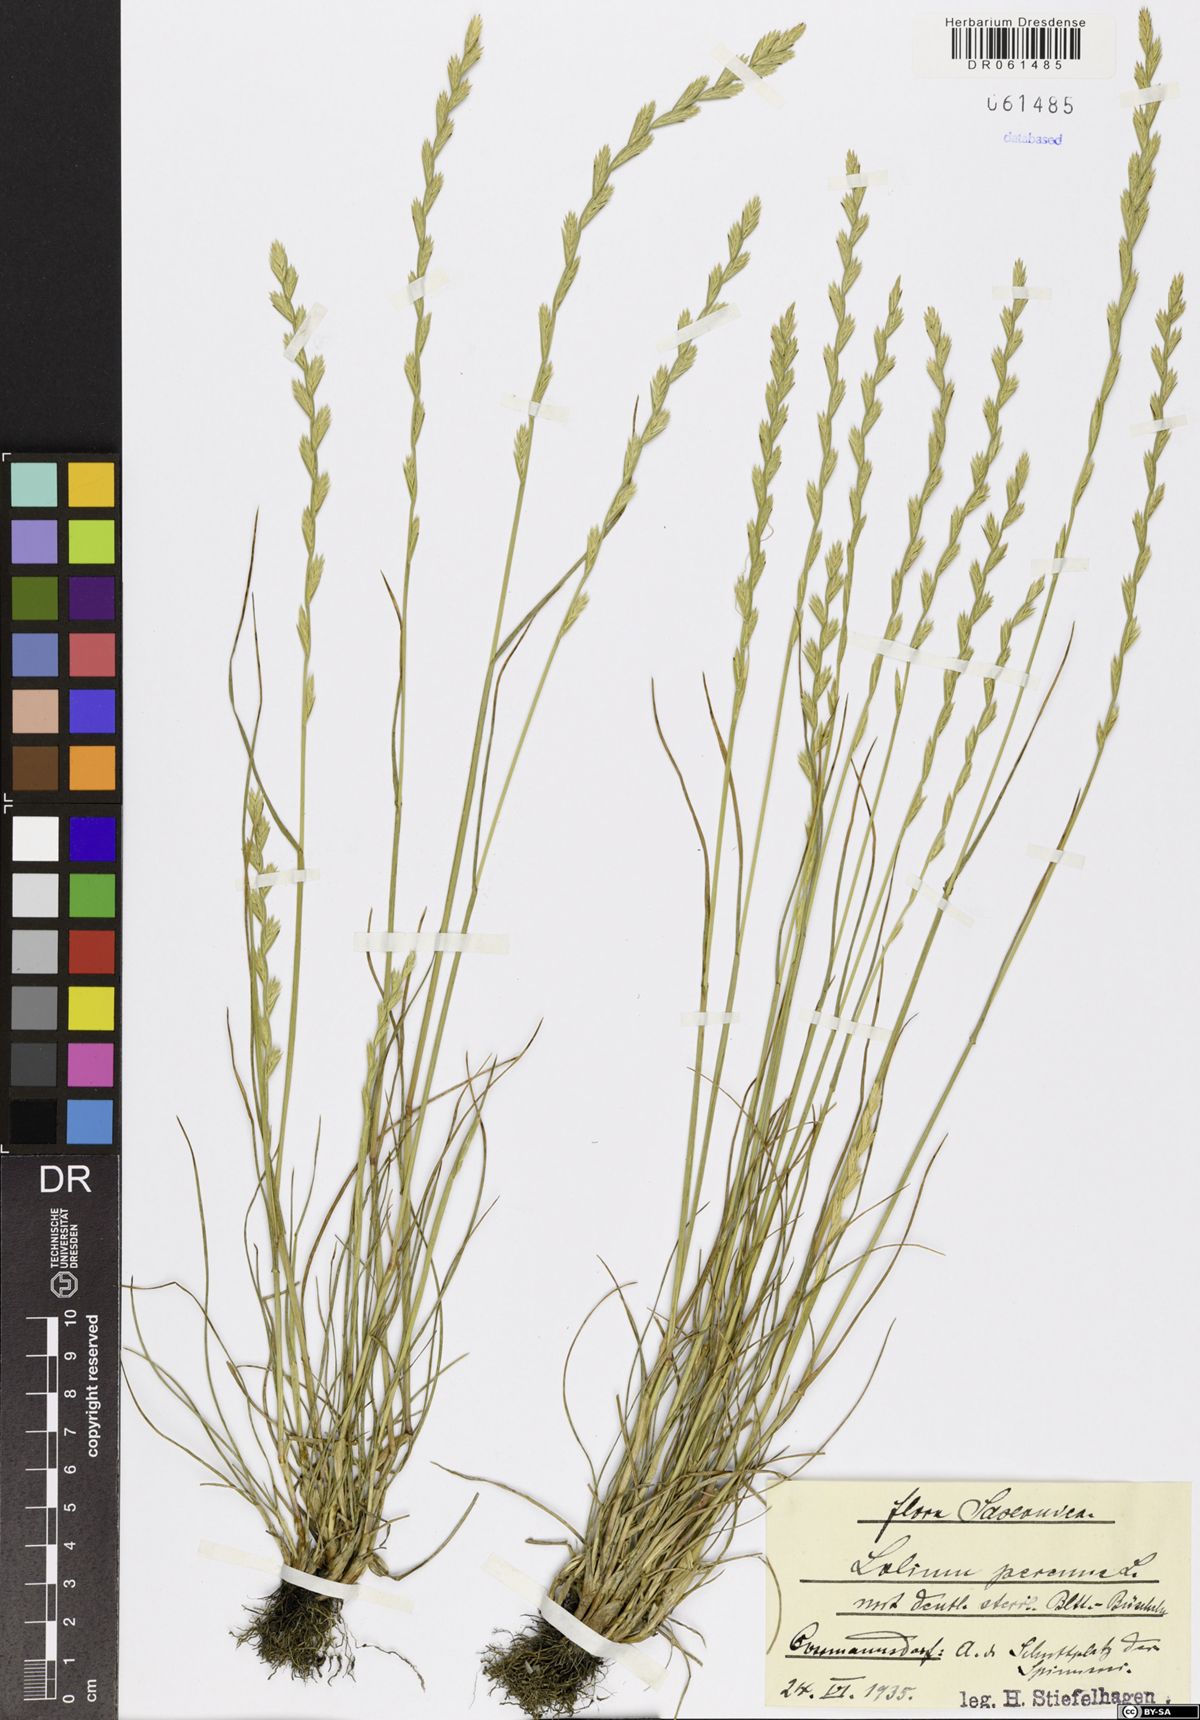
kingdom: Plantae
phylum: Tracheophyta
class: Liliopsida
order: Poales
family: Poaceae
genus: Lolium
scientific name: Lolium perenne
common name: Perennial ryegrass
